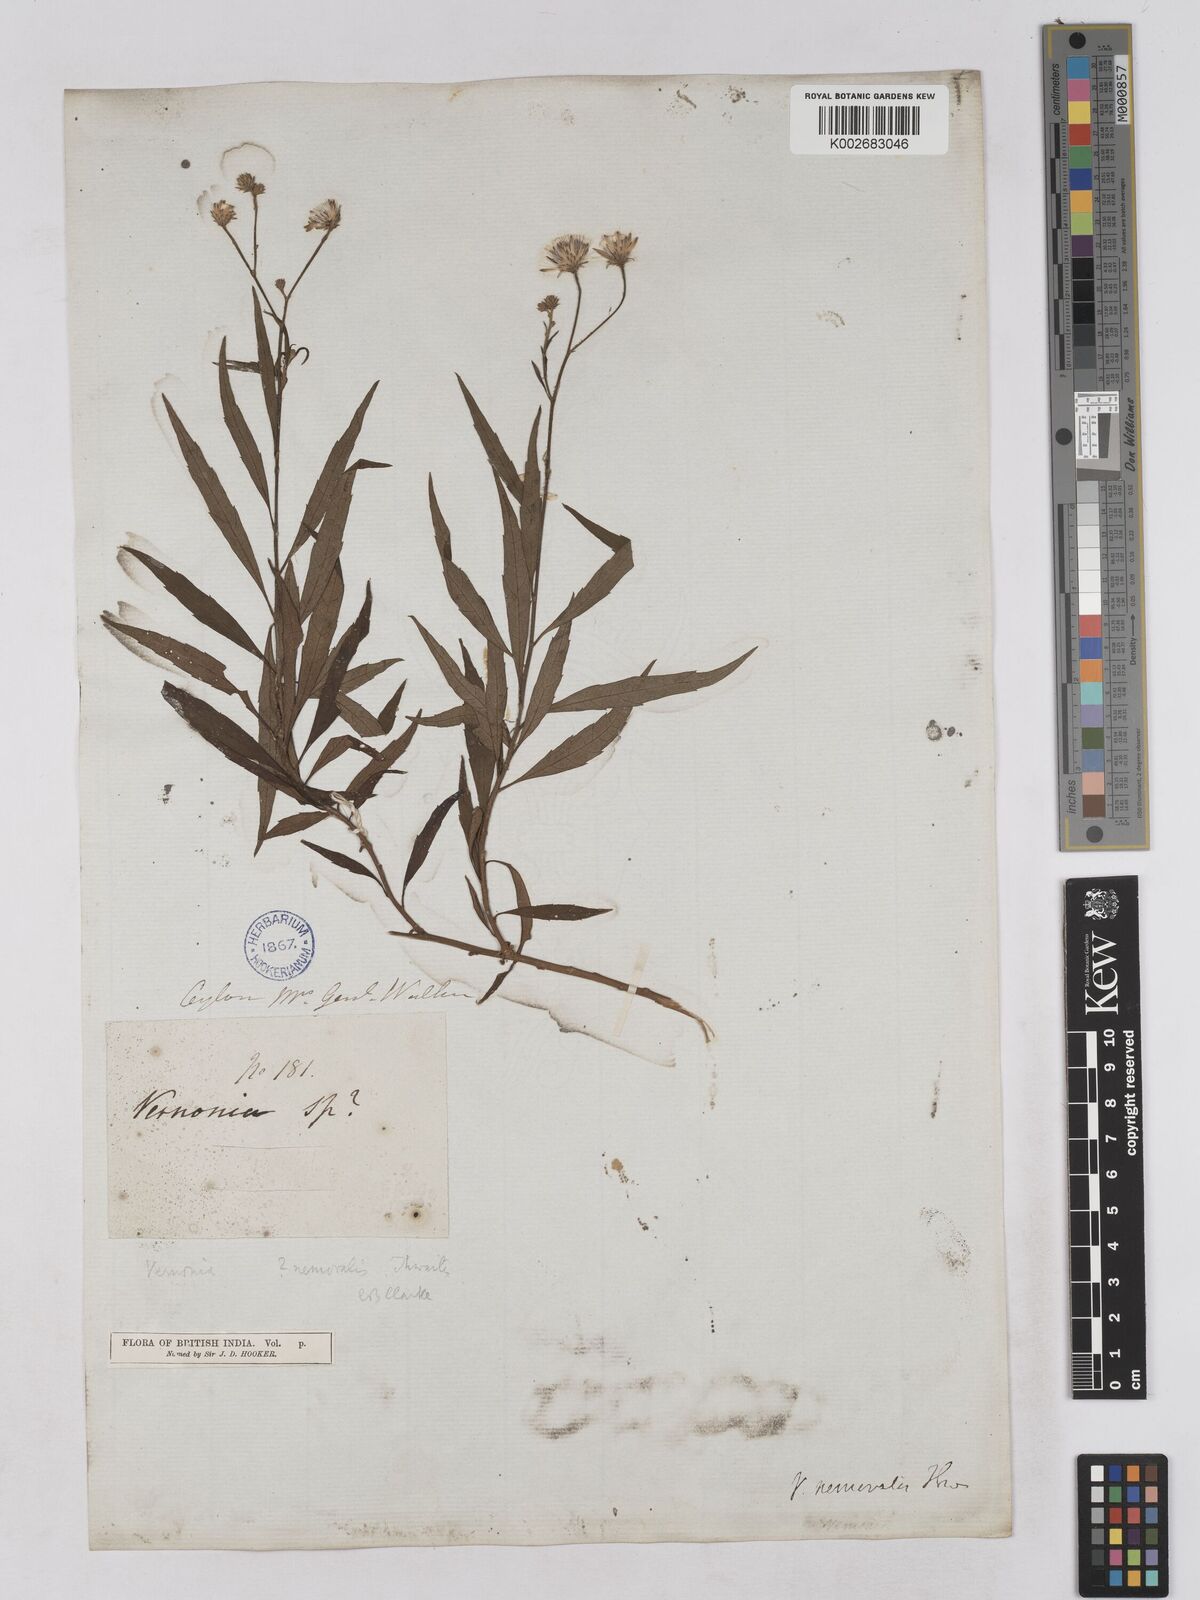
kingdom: Plantae
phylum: Tracheophyta
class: Magnoliopsida
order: Asterales
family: Asteraceae
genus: Acilepis
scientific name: Acilepis nemoralis
